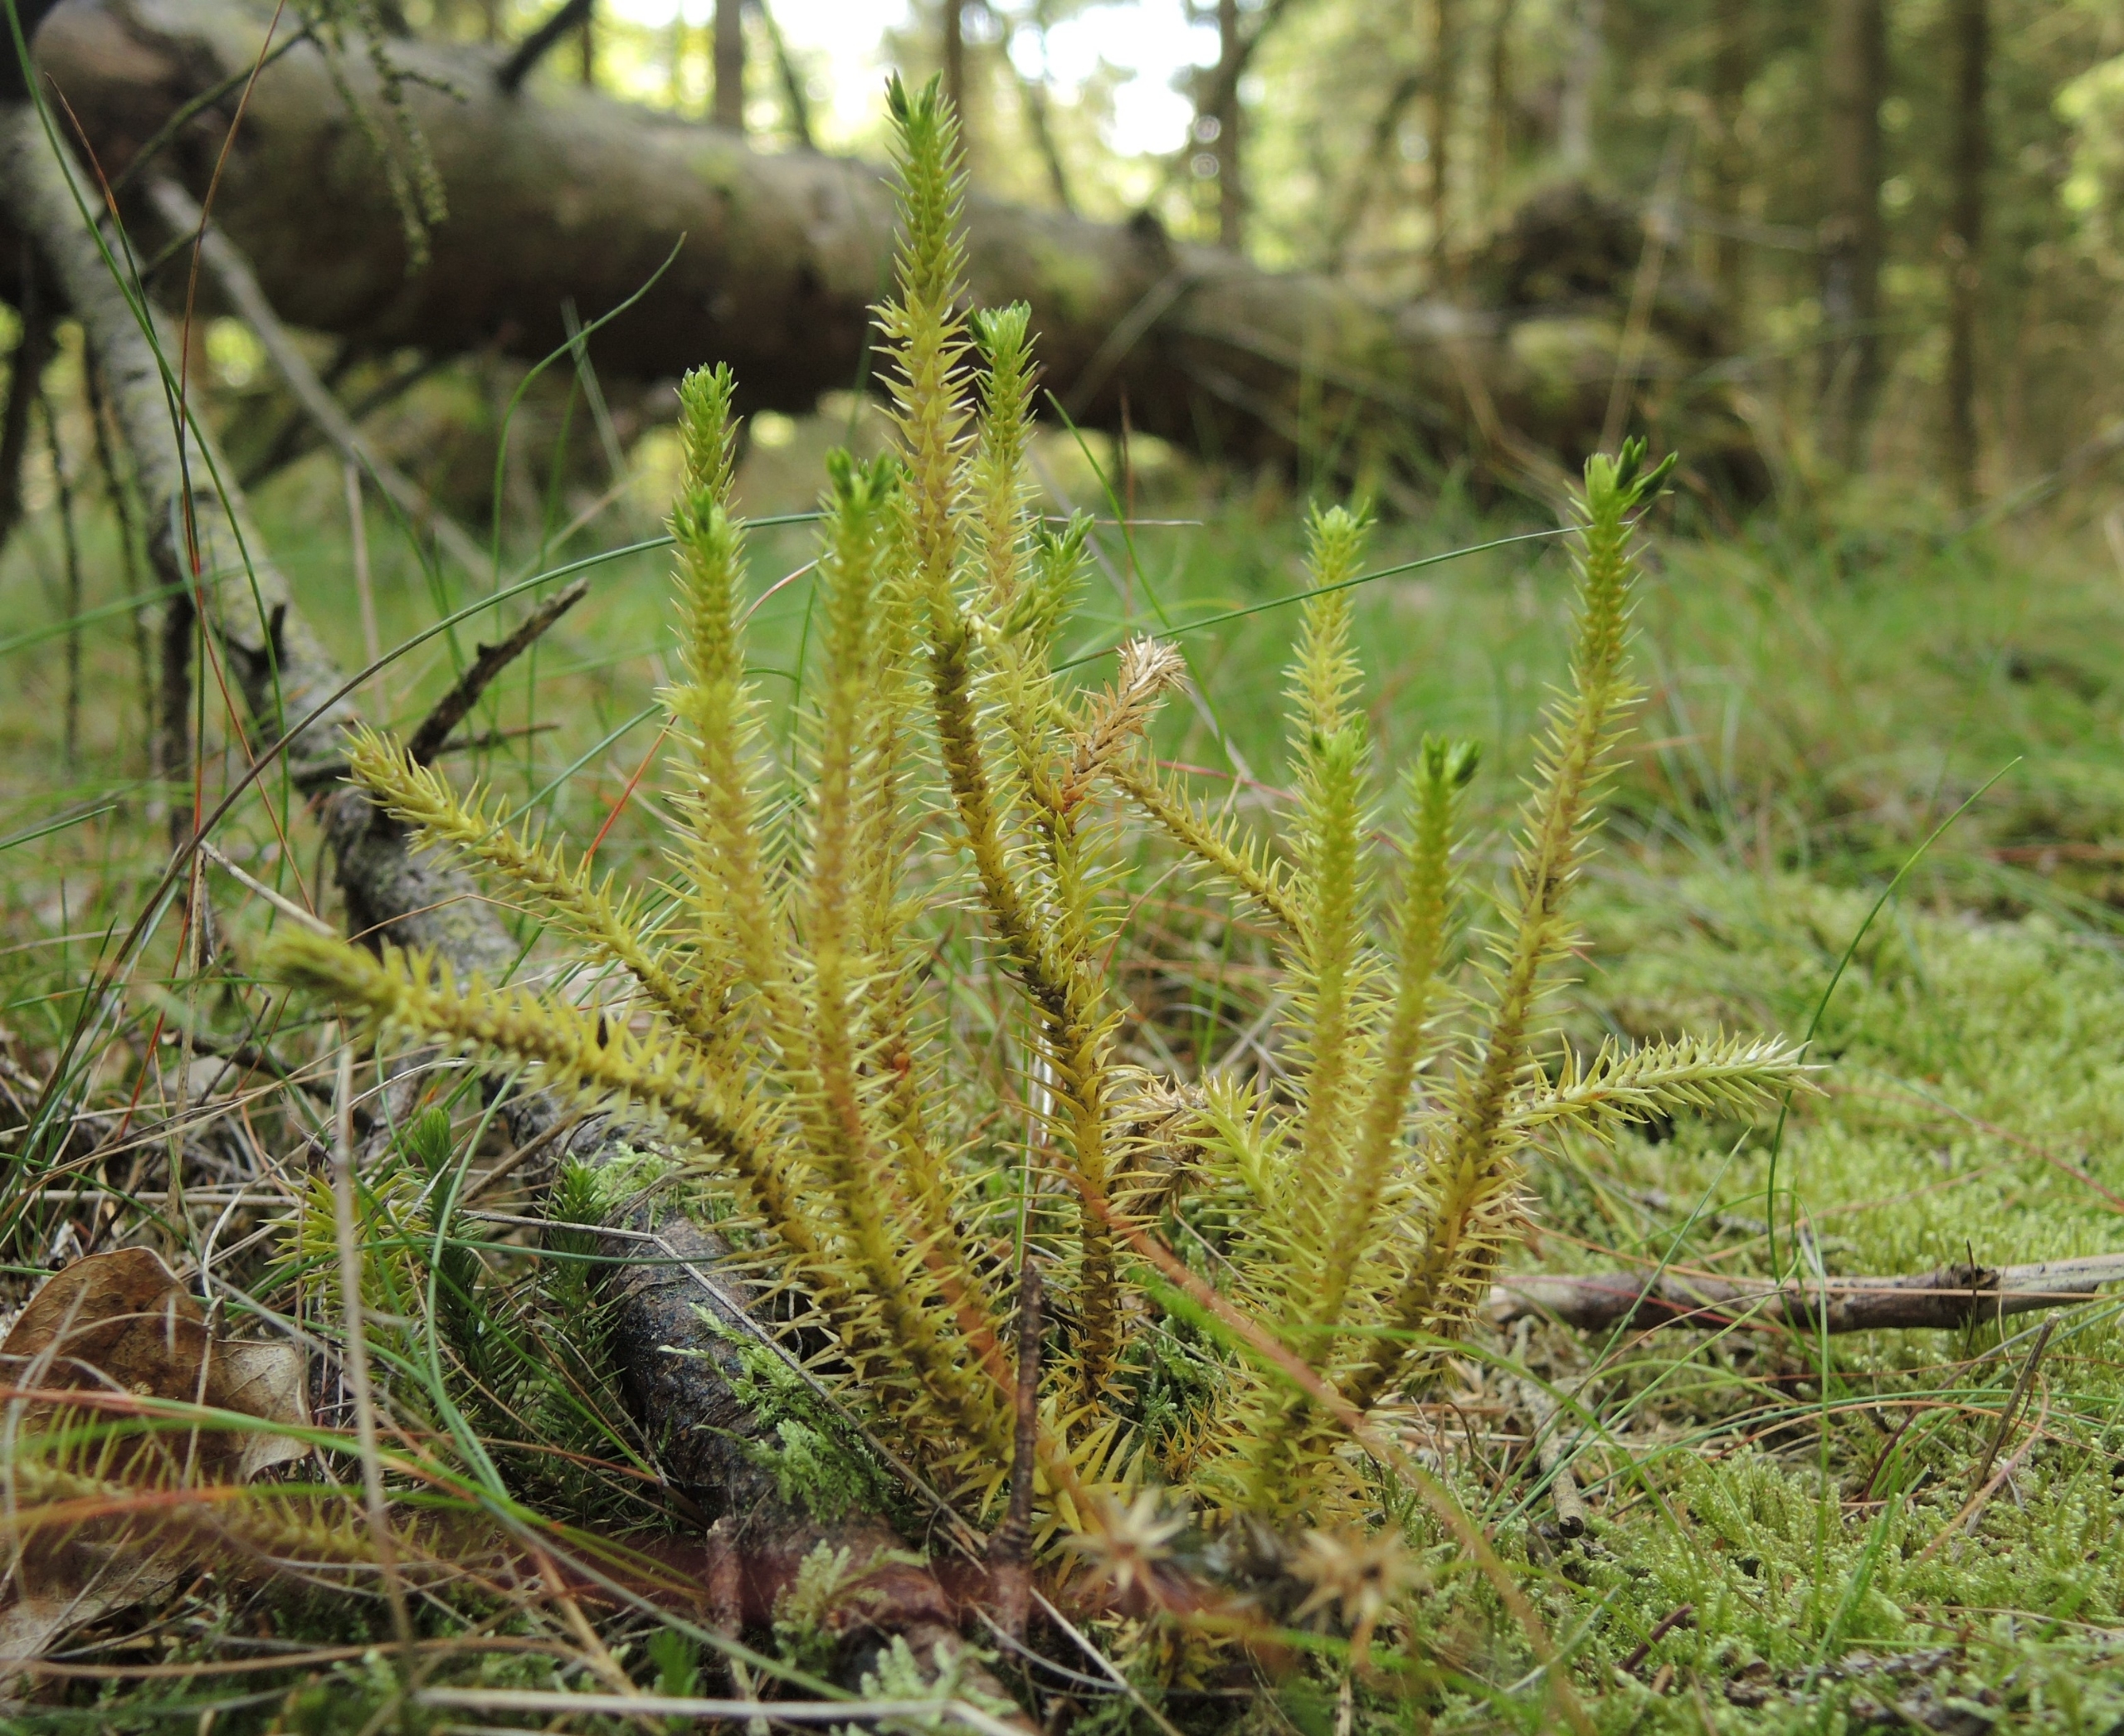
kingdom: Plantae
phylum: Tracheophyta
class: Lycopodiopsida
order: Lycopodiales
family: Lycopodiaceae
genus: Huperzia
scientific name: Huperzia selago
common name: Otteradet ulvefod
